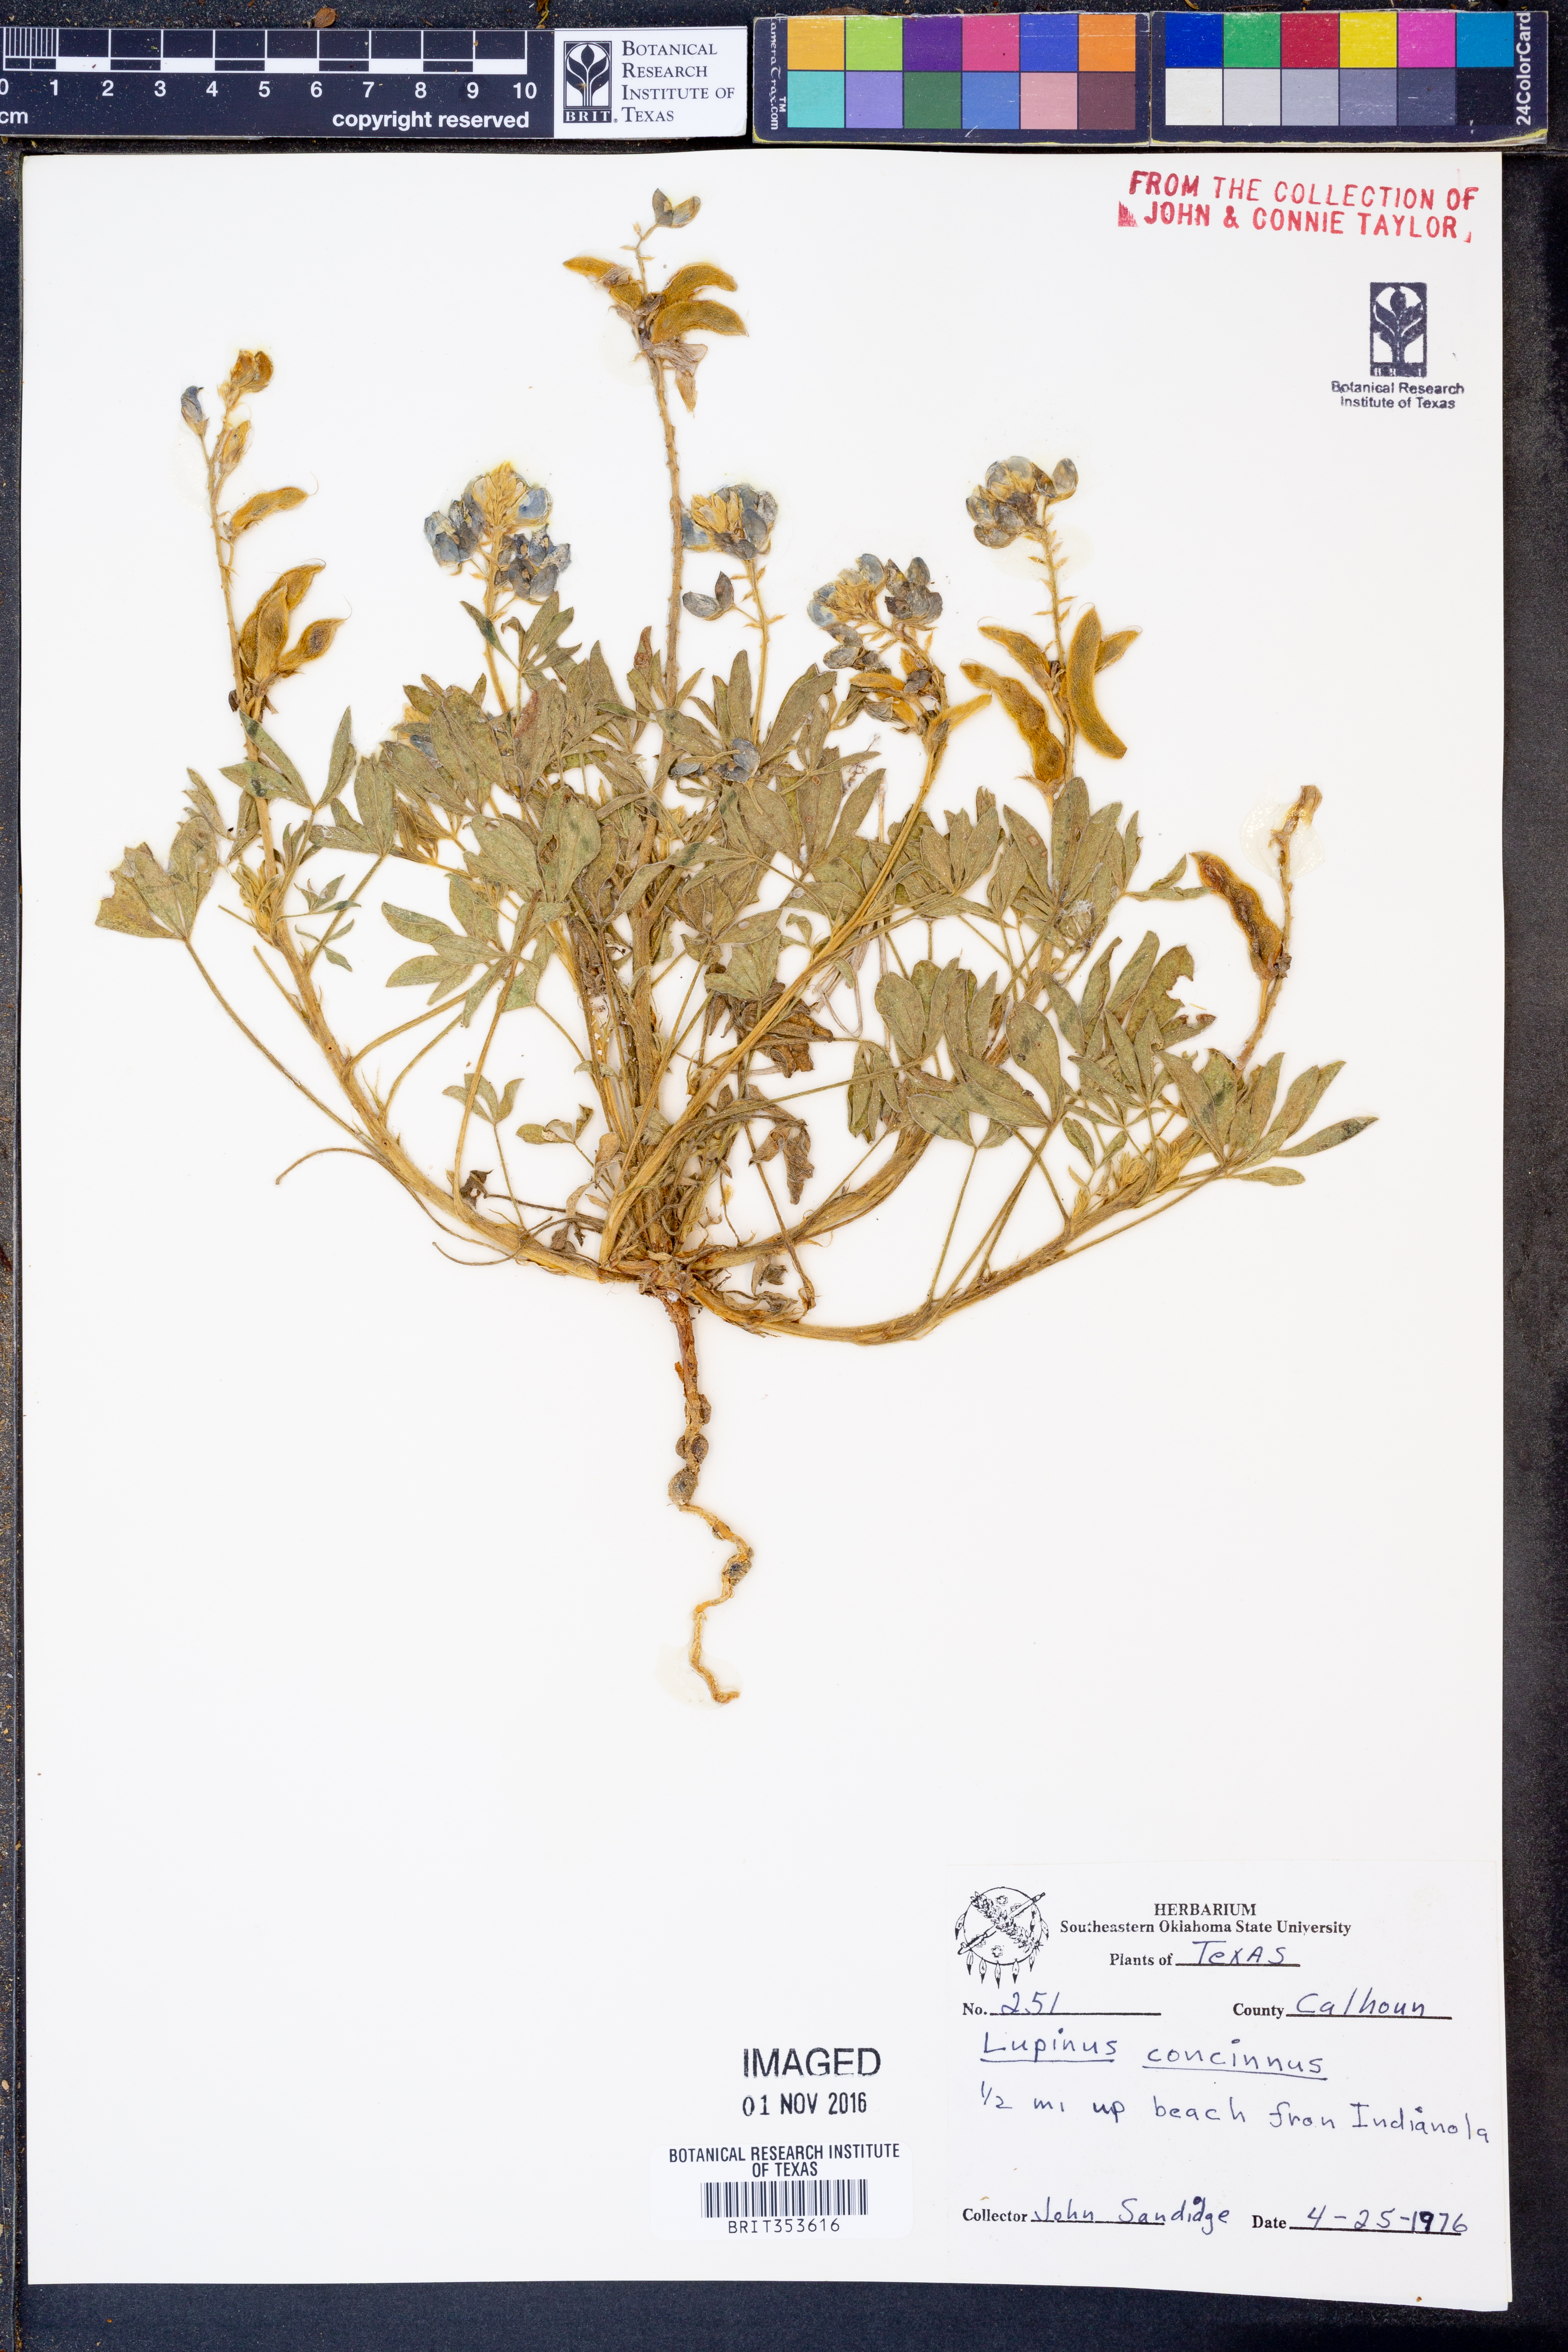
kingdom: Plantae
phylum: Tracheophyta
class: Magnoliopsida
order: Fabales
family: Fabaceae
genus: Lupinus
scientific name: Lupinus concinnus
